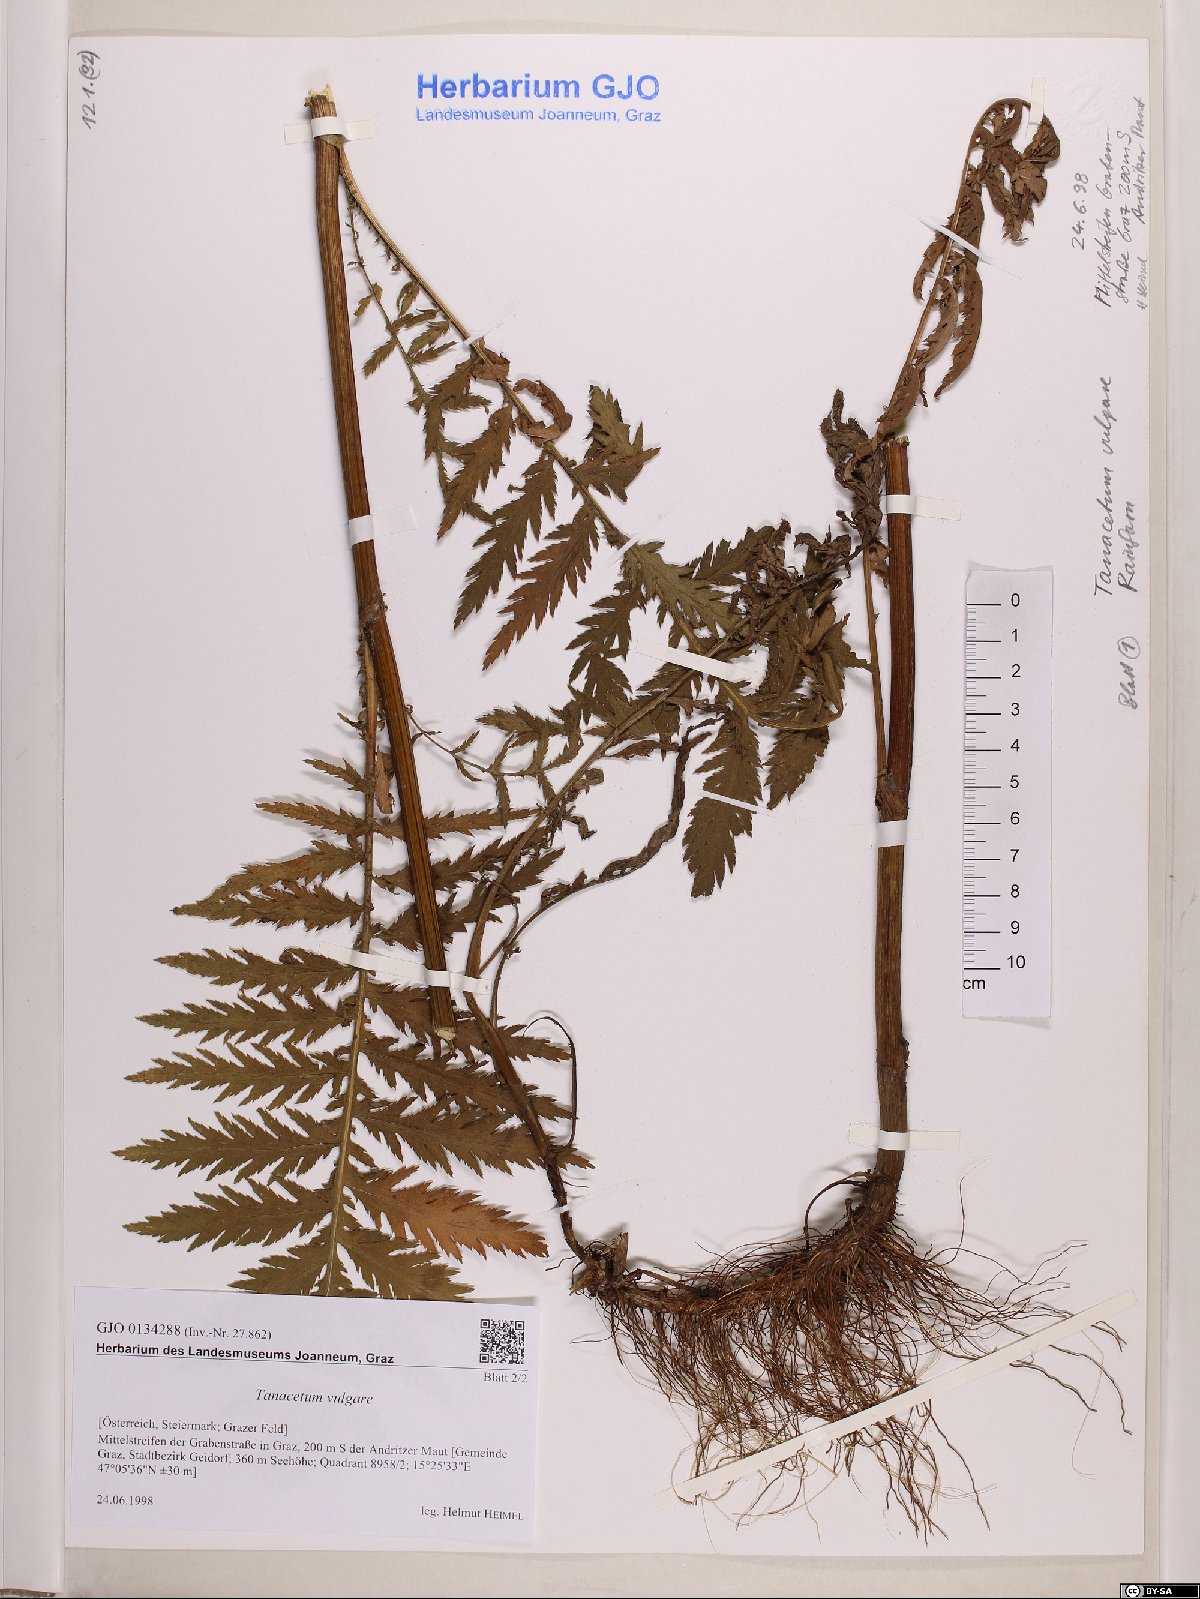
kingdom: Plantae
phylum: Tracheophyta
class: Magnoliopsida
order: Asterales
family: Asteraceae
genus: Tanacetum
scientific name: Tanacetum vulgare
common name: Common tansy
